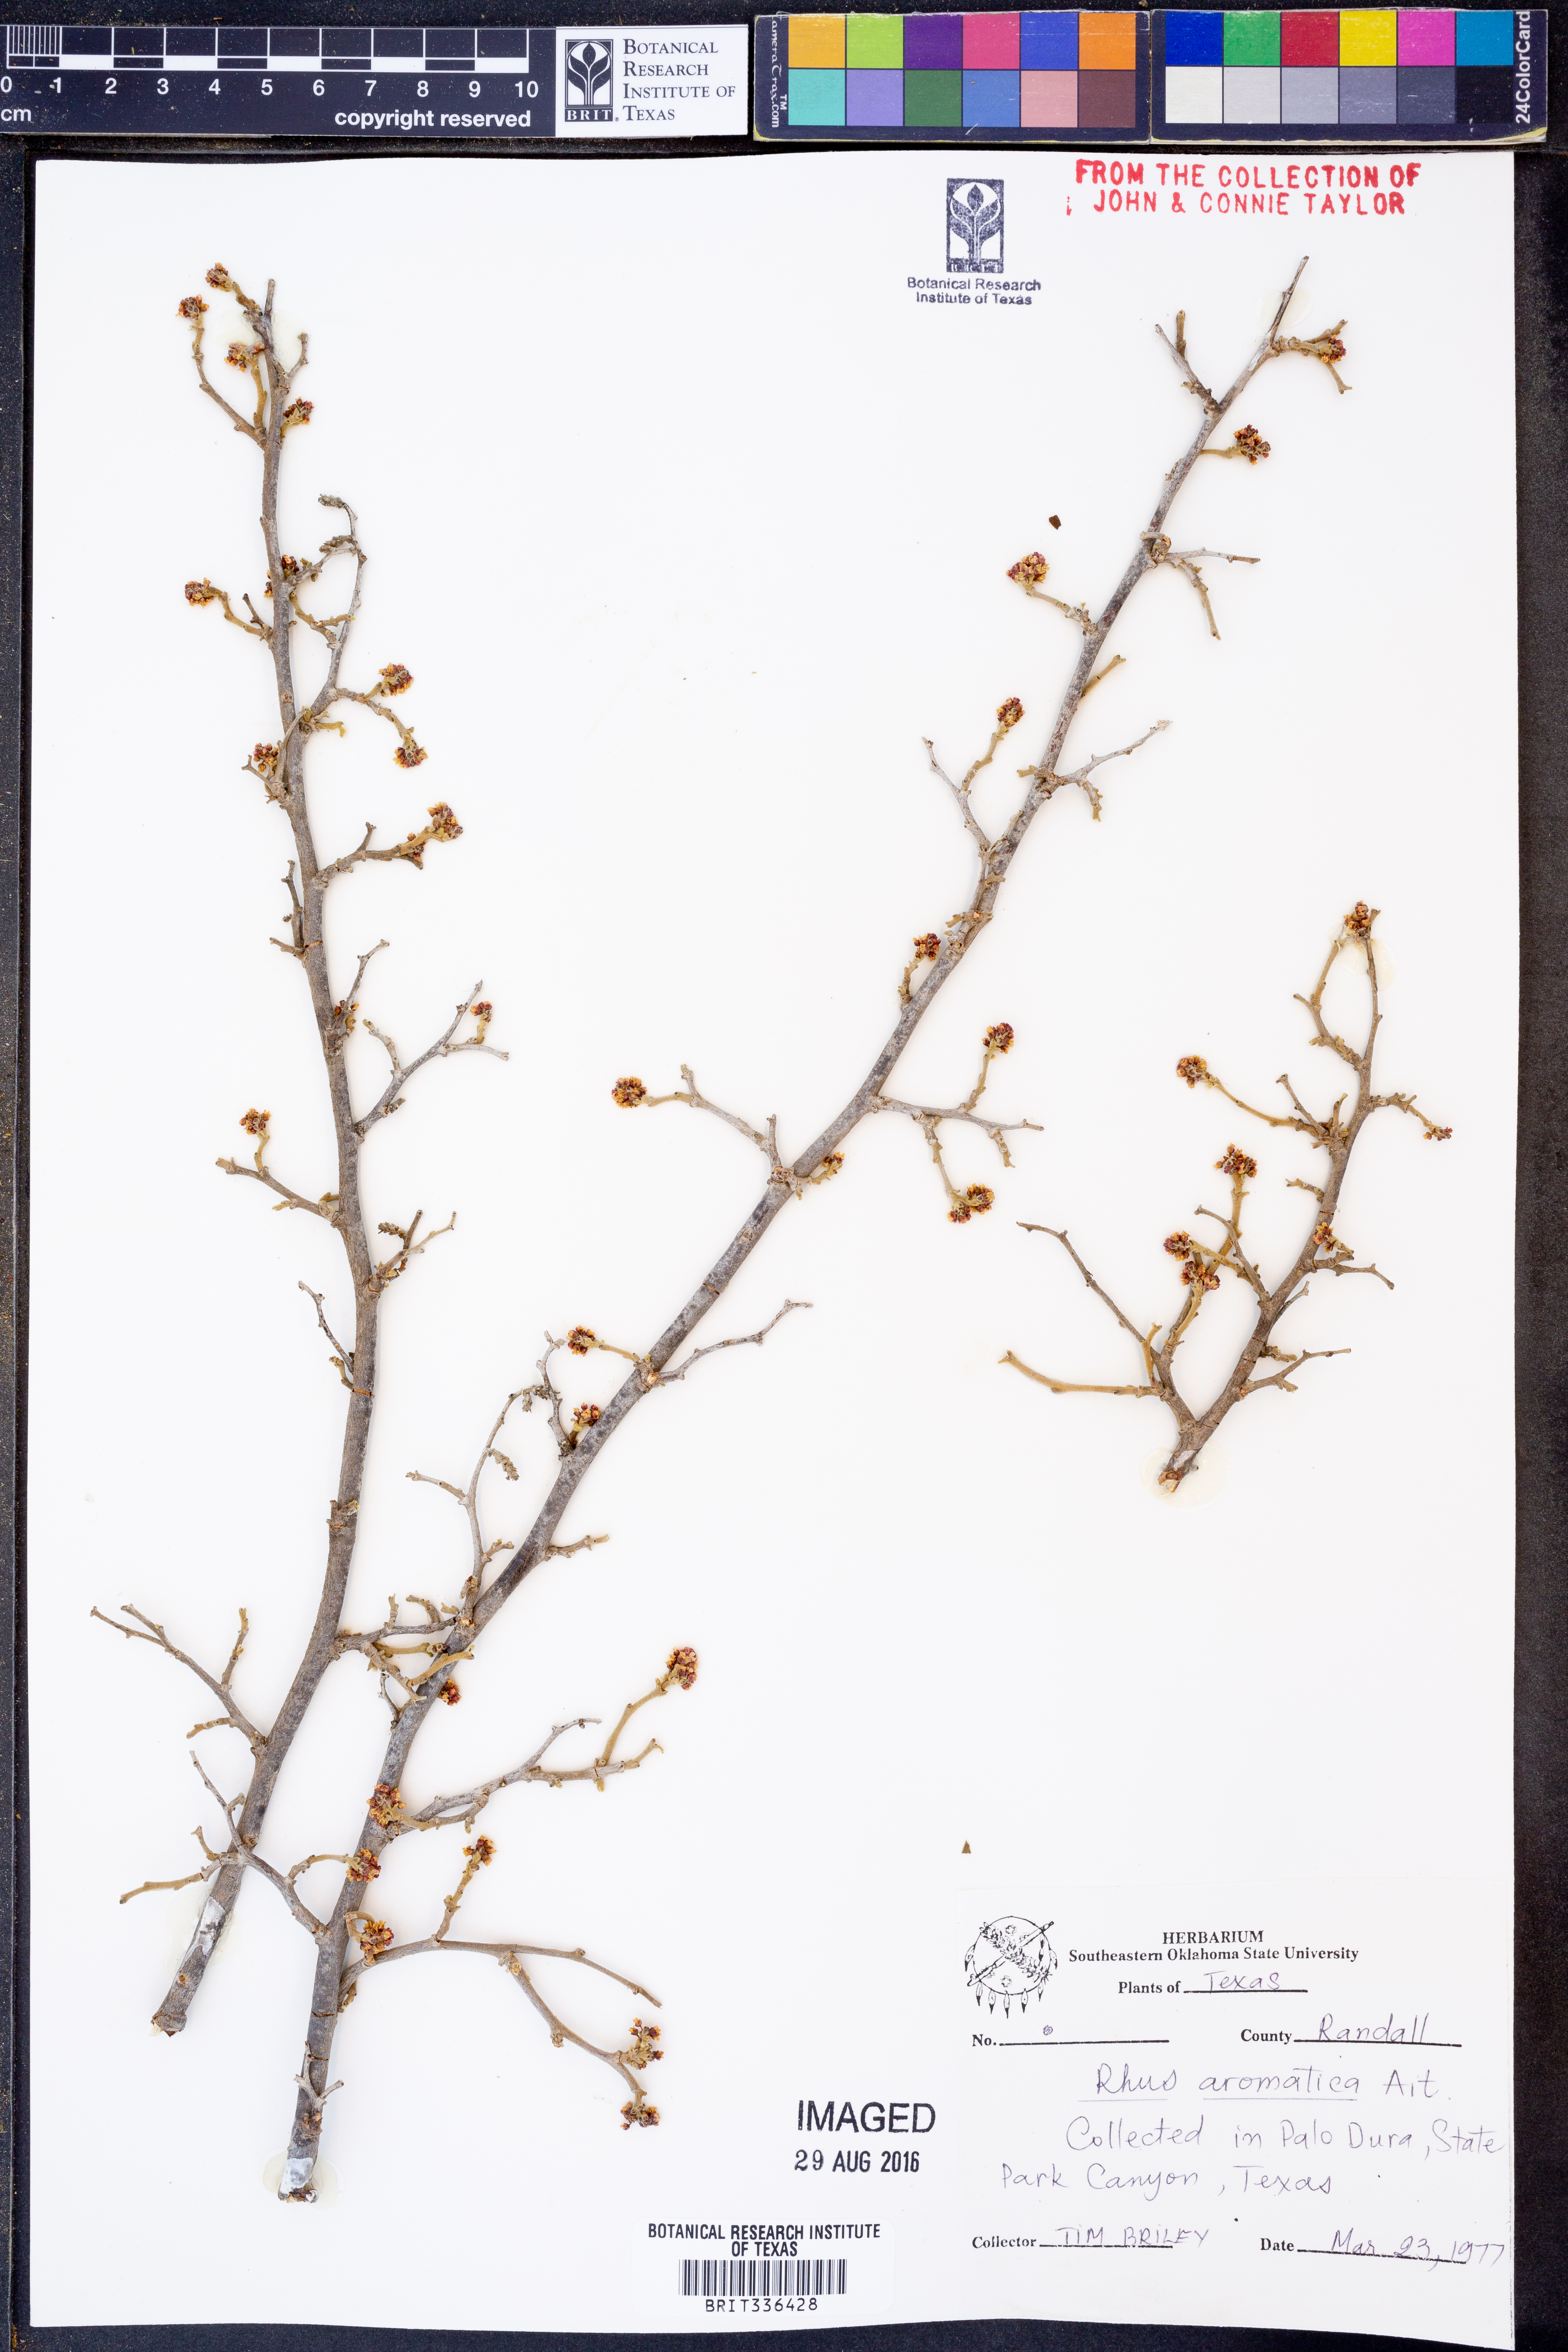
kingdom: Plantae
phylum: Tracheophyta
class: Magnoliopsida
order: Sapindales
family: Anacardiaceae
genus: Rhus
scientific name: Rhus aromatica
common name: Aromatic sumac
